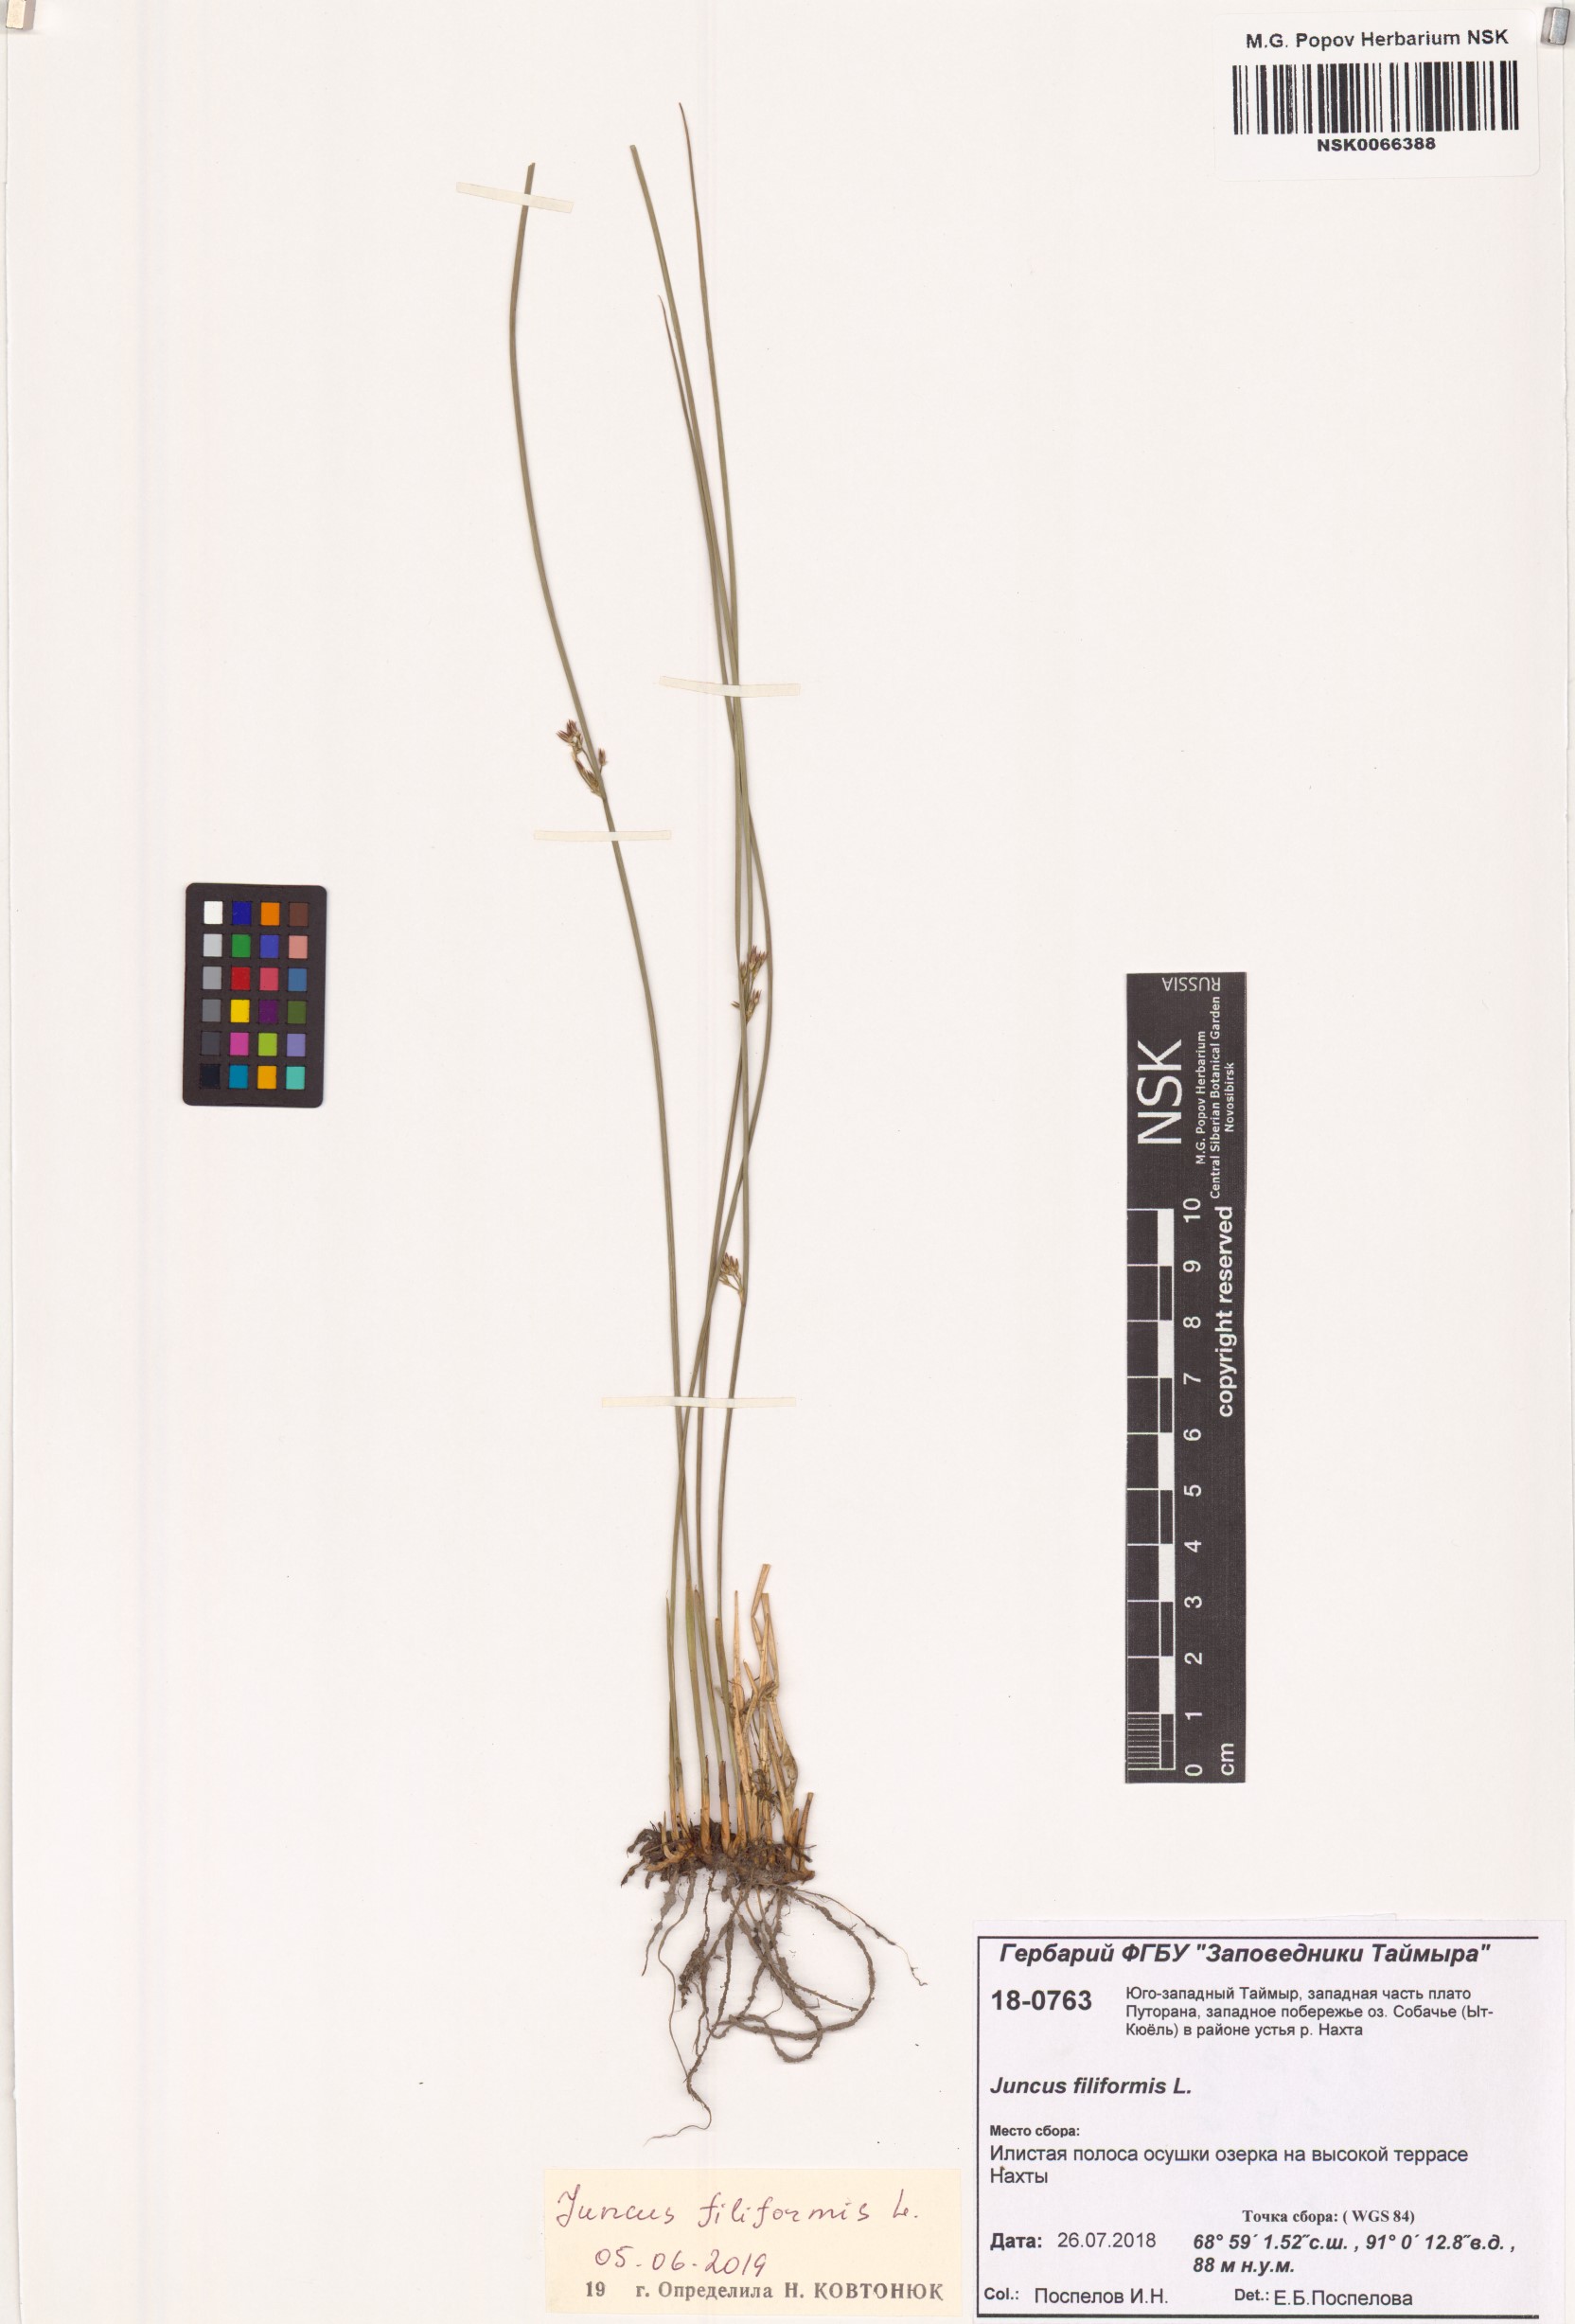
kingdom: Plantae
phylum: Tracheophyta
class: Liliopsida
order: Poales
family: Juncaceae
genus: Juncus
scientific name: Juncus filiformis
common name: Thread rush
